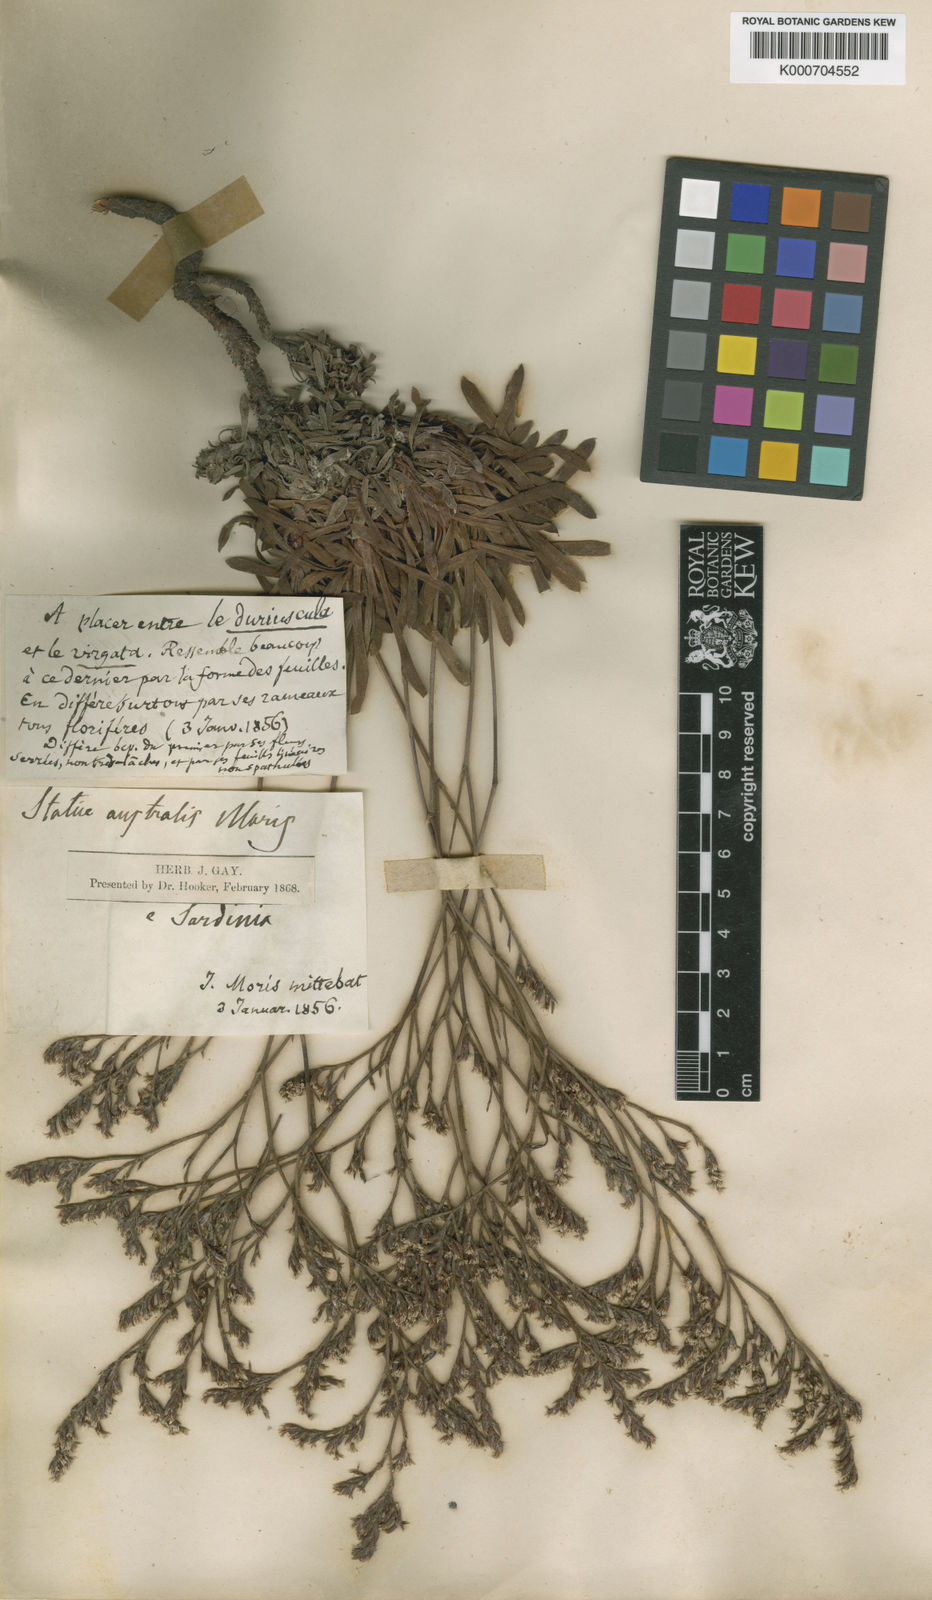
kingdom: Plantae
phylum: Tracheophyta
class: Magnoliopsida
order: Caryophyllales
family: Plumbaginaceae
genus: Limonium
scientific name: Limonium virgatum
